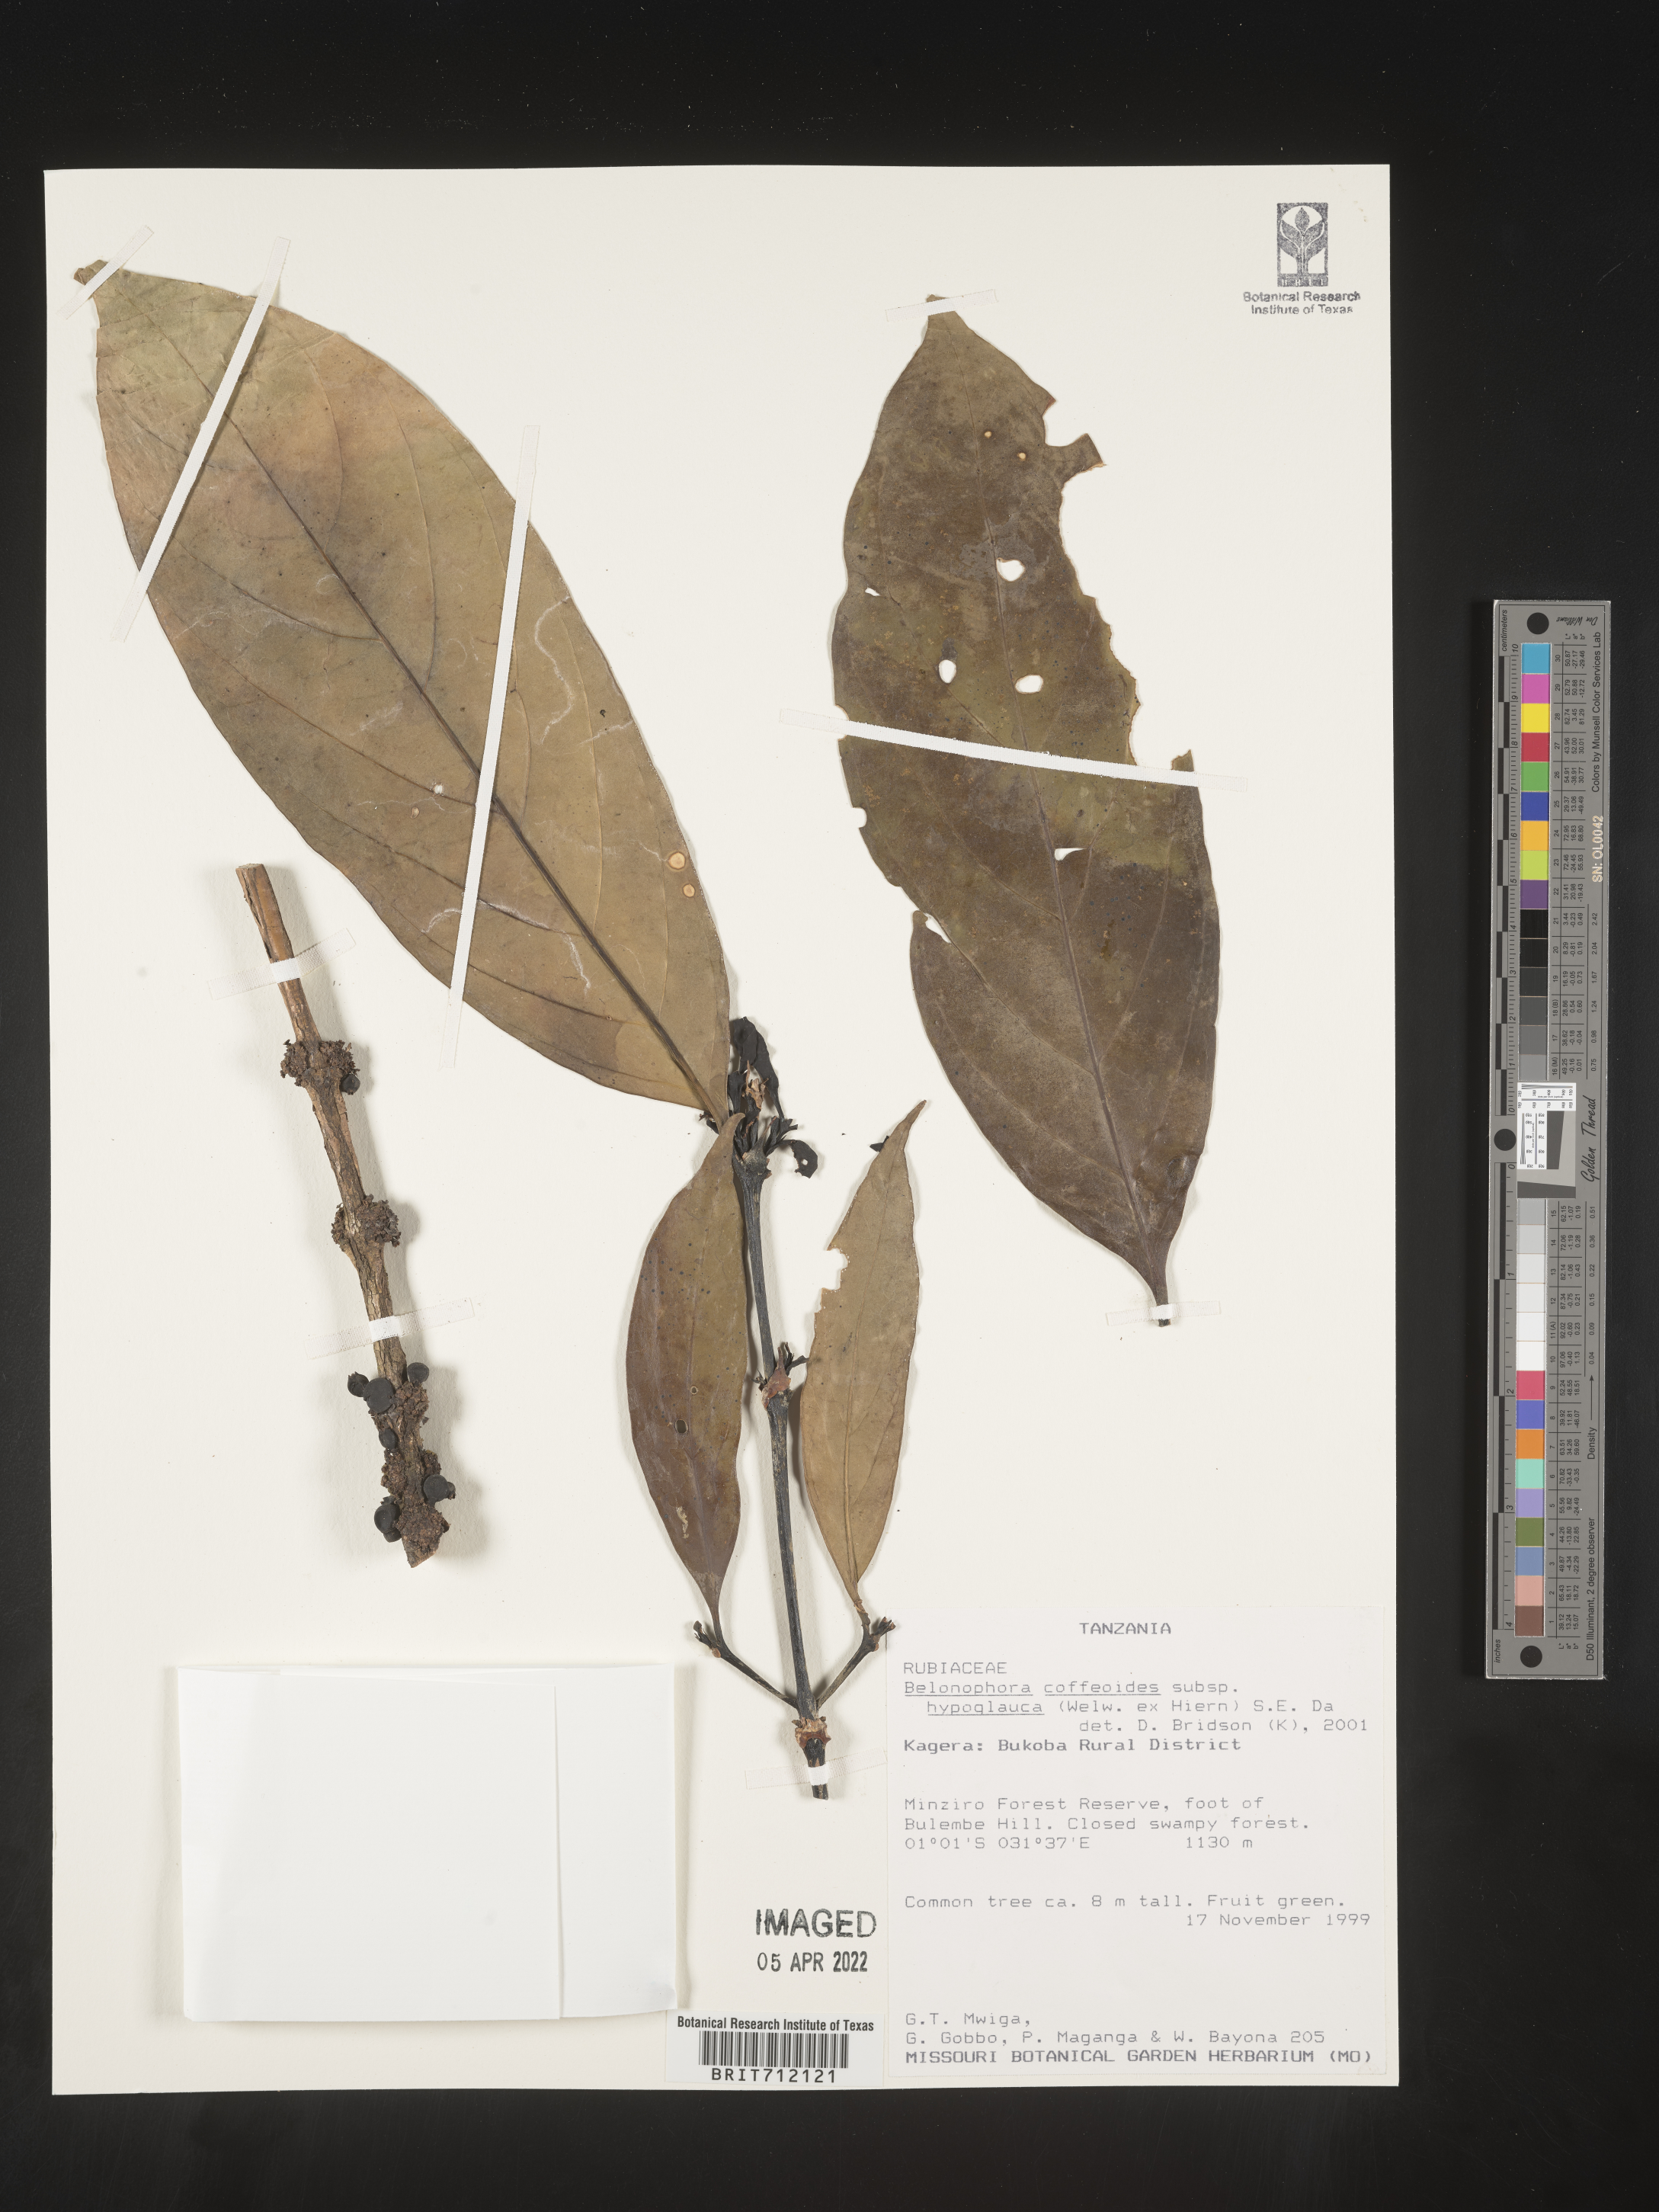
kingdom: Plantae
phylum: Tracheophyta
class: Magnoliopsida
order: Gentianales
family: Rubiaceae
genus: Belonophora
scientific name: Belonophora
